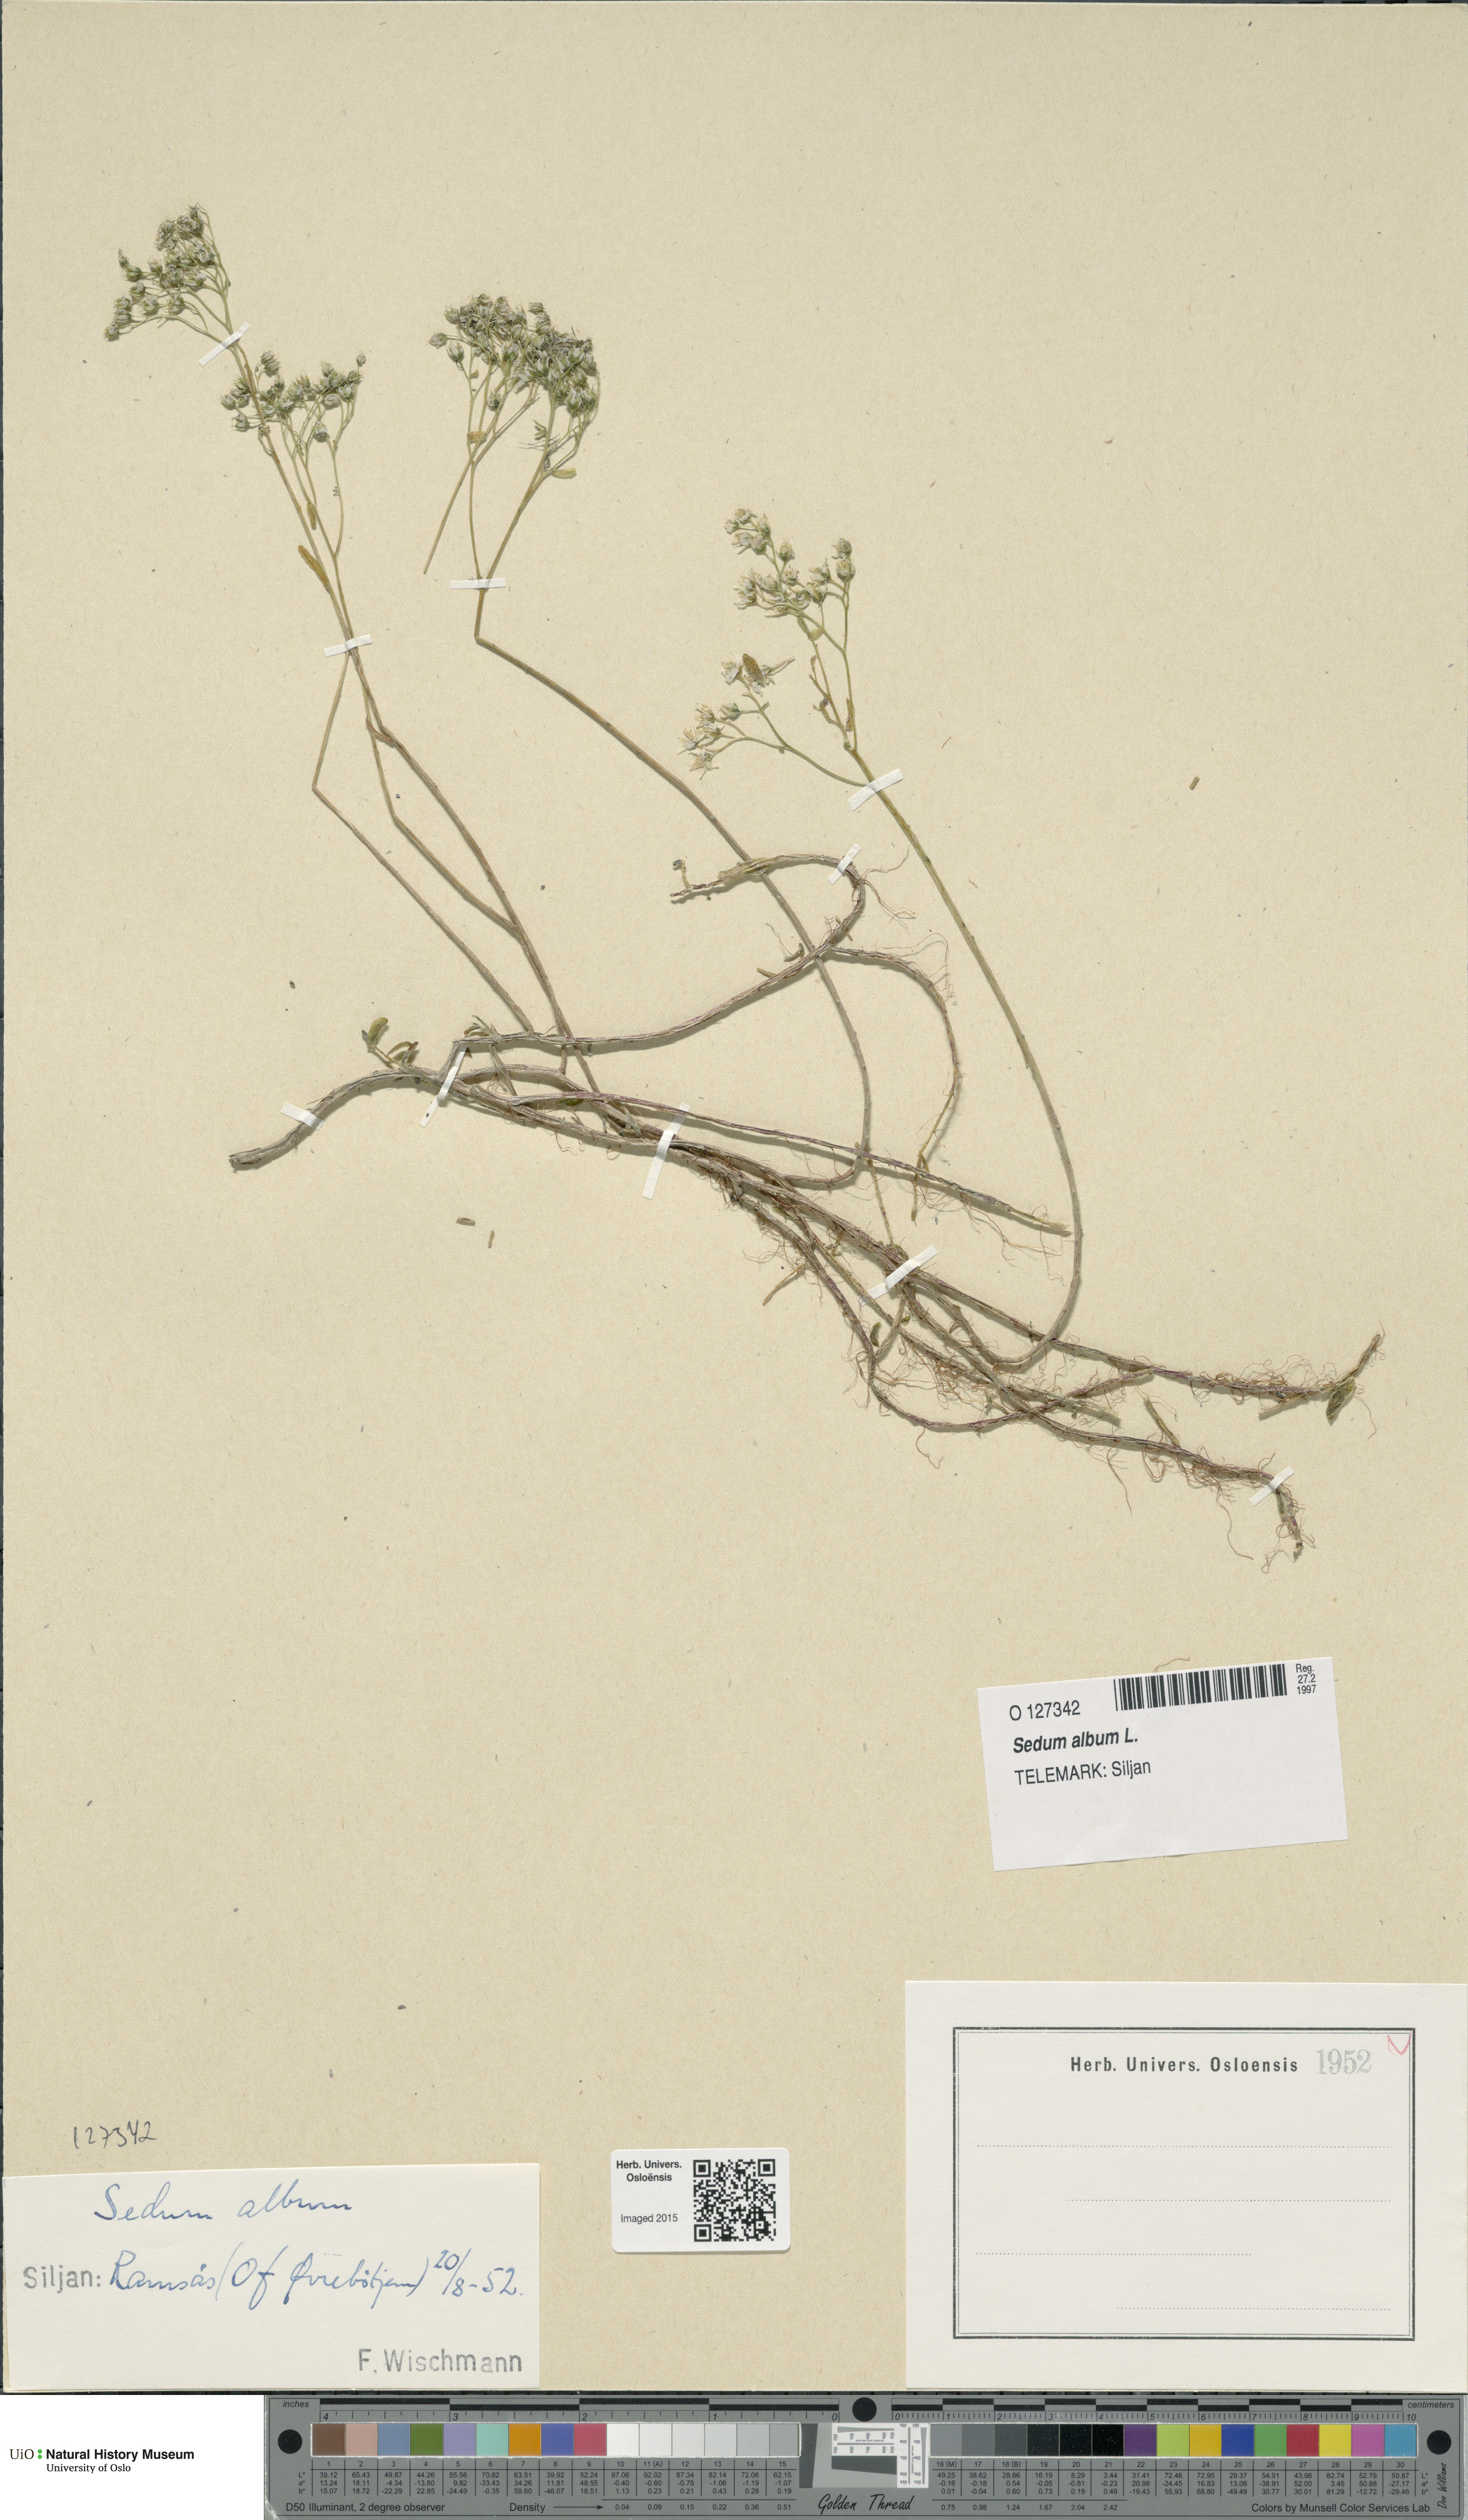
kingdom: Plantae
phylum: Tracheophyta
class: Magnoliopsida
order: Saxifragales
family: Crassulaceae
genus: Sedum
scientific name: Sedum album
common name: White stonecrop
